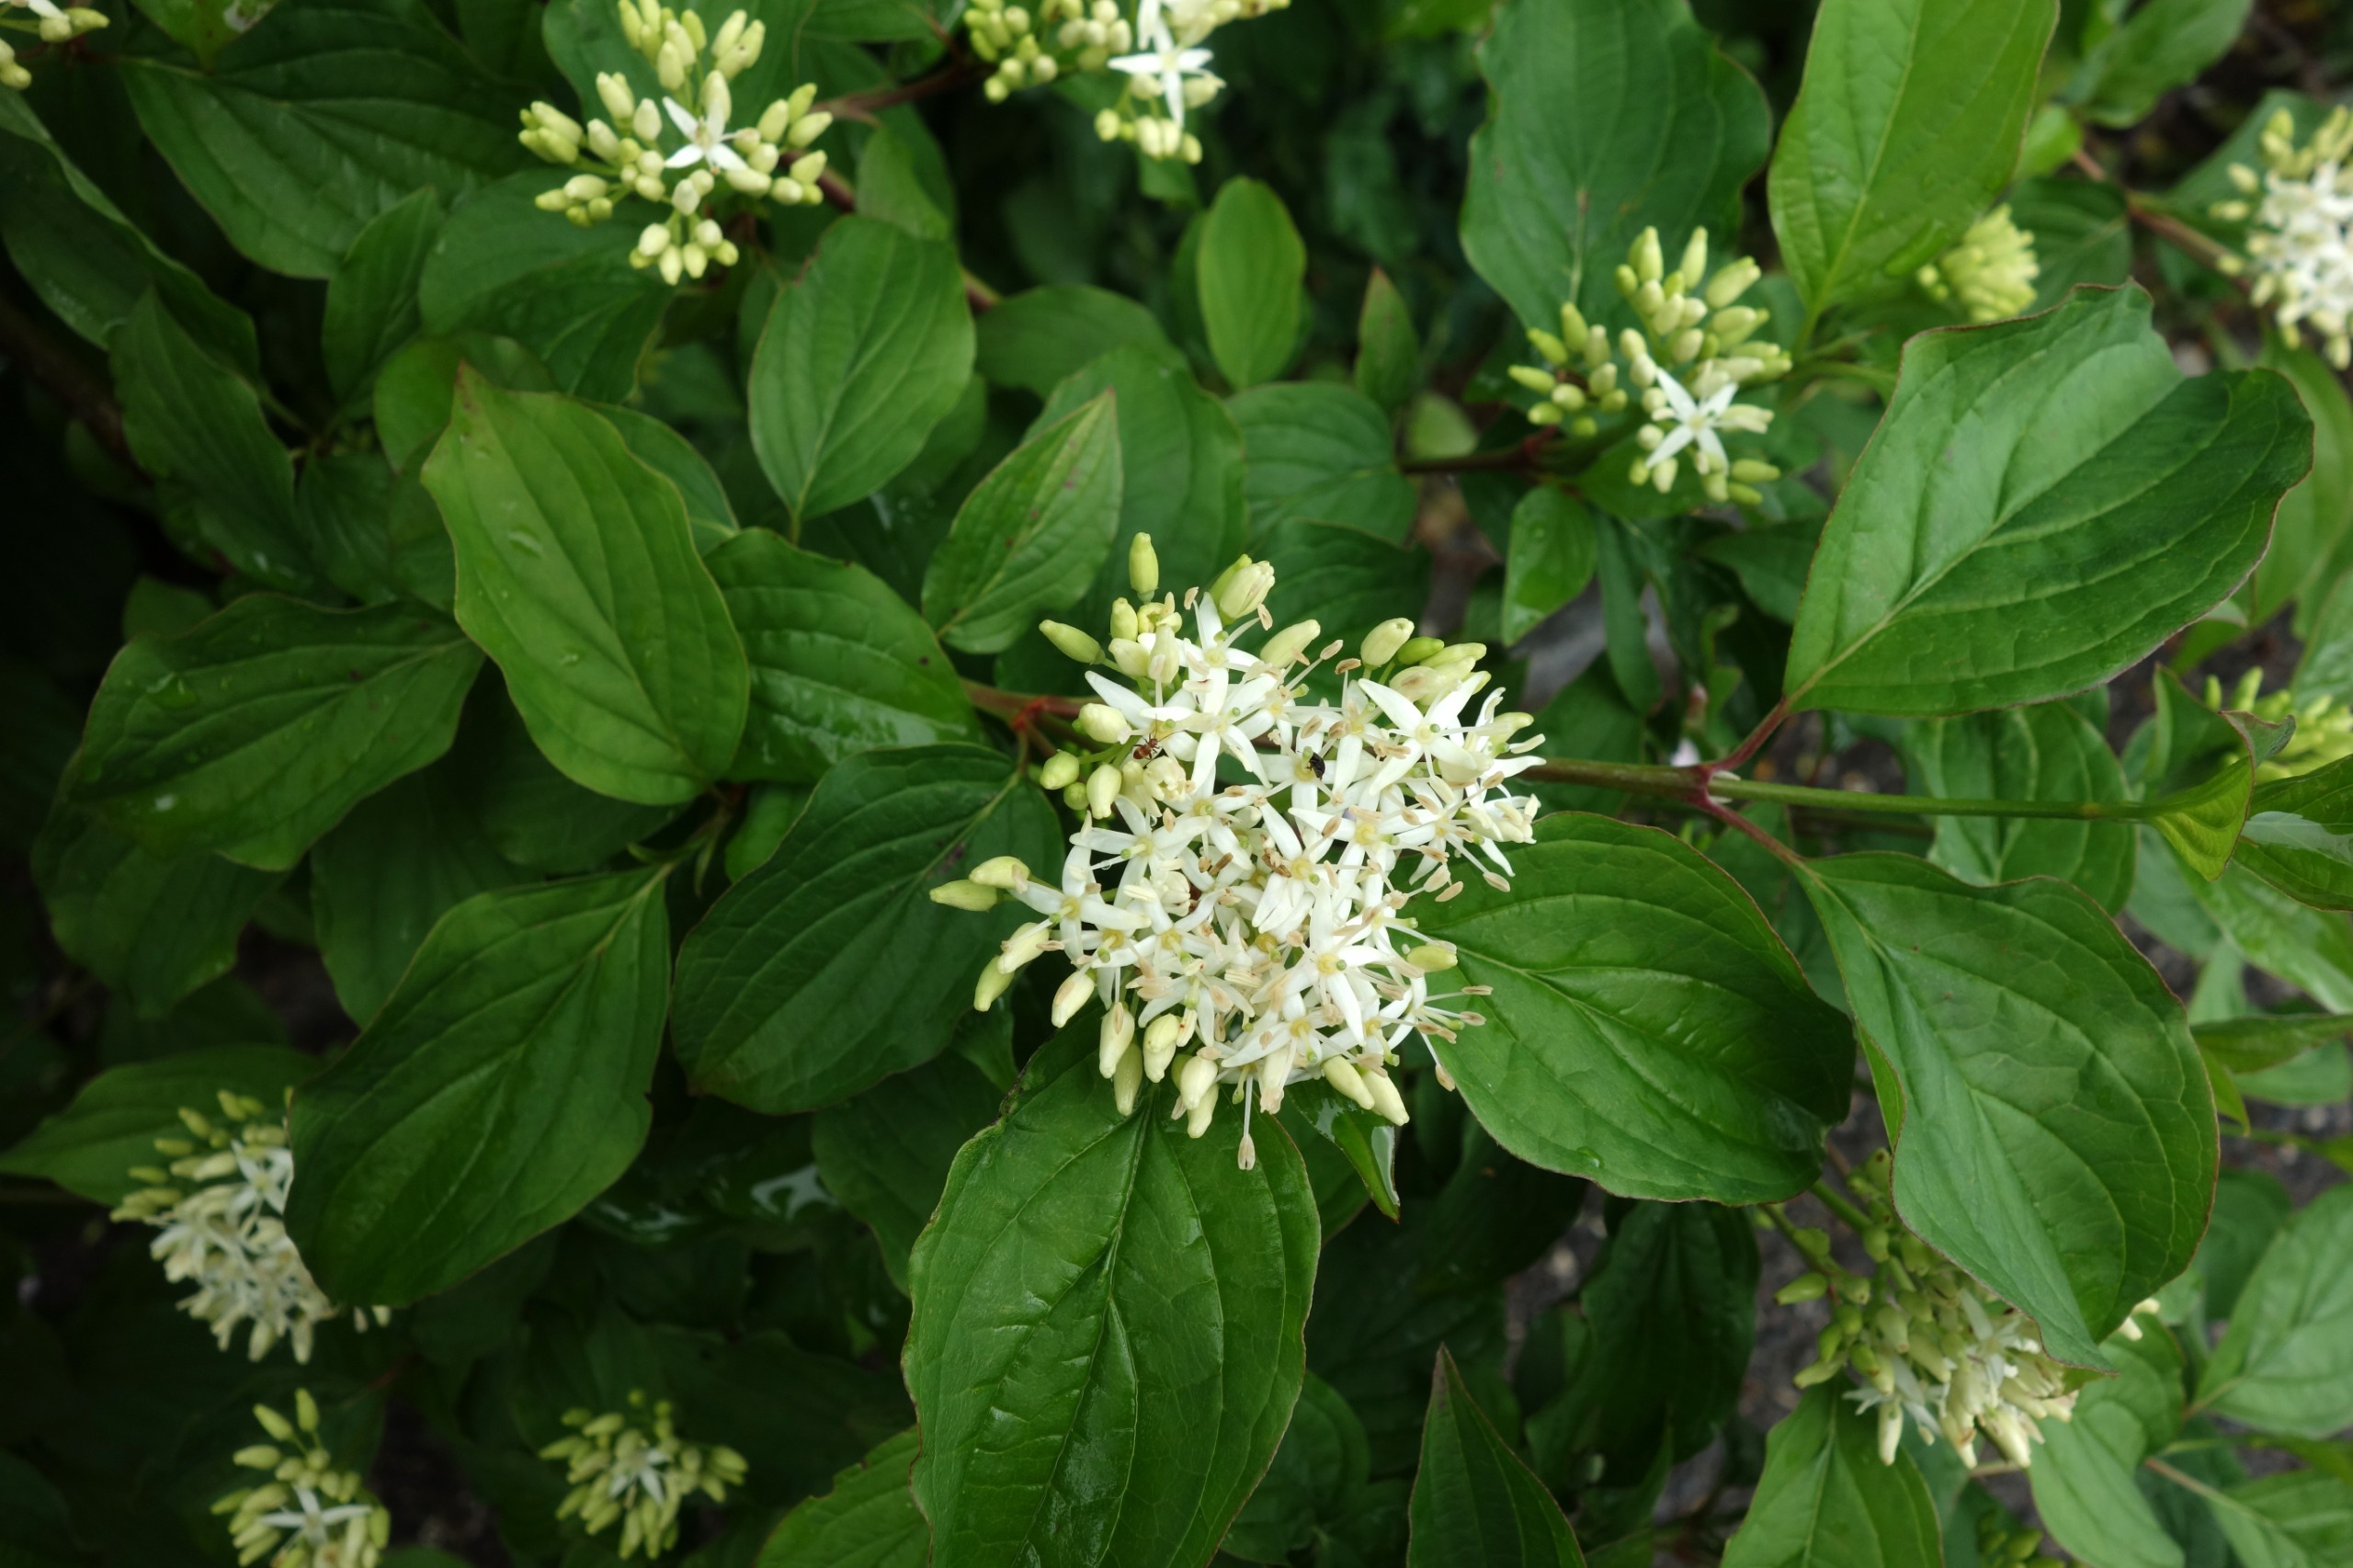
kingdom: Plantae
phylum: Tracheophyta
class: Magnoliopsida
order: Cornales
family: Cornaceae
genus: Cornus
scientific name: Cornus sanguinea
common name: Rød kornel
